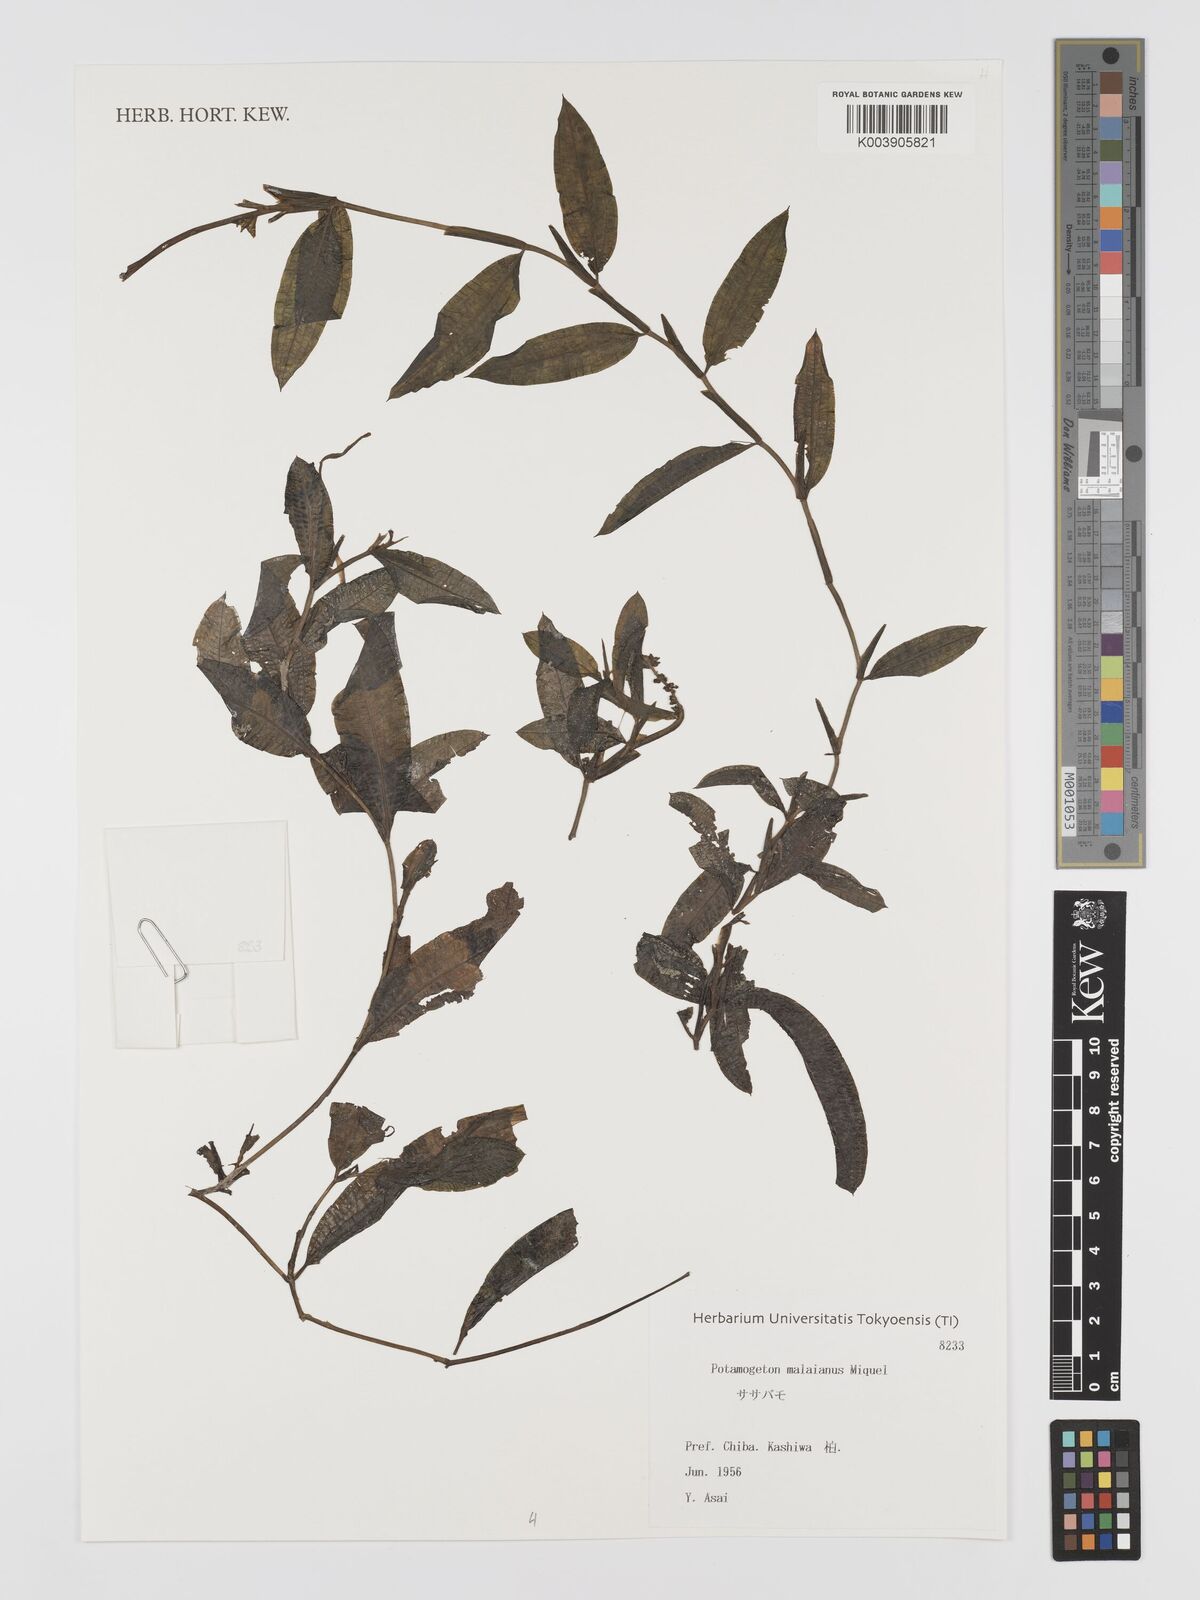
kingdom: Plantae
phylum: Tracheophyta
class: Liliopsida
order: Alismatales
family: Potamogetonaceae
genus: Potamogeton
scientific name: Potamogeton nodosus
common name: Loddon pondweed
